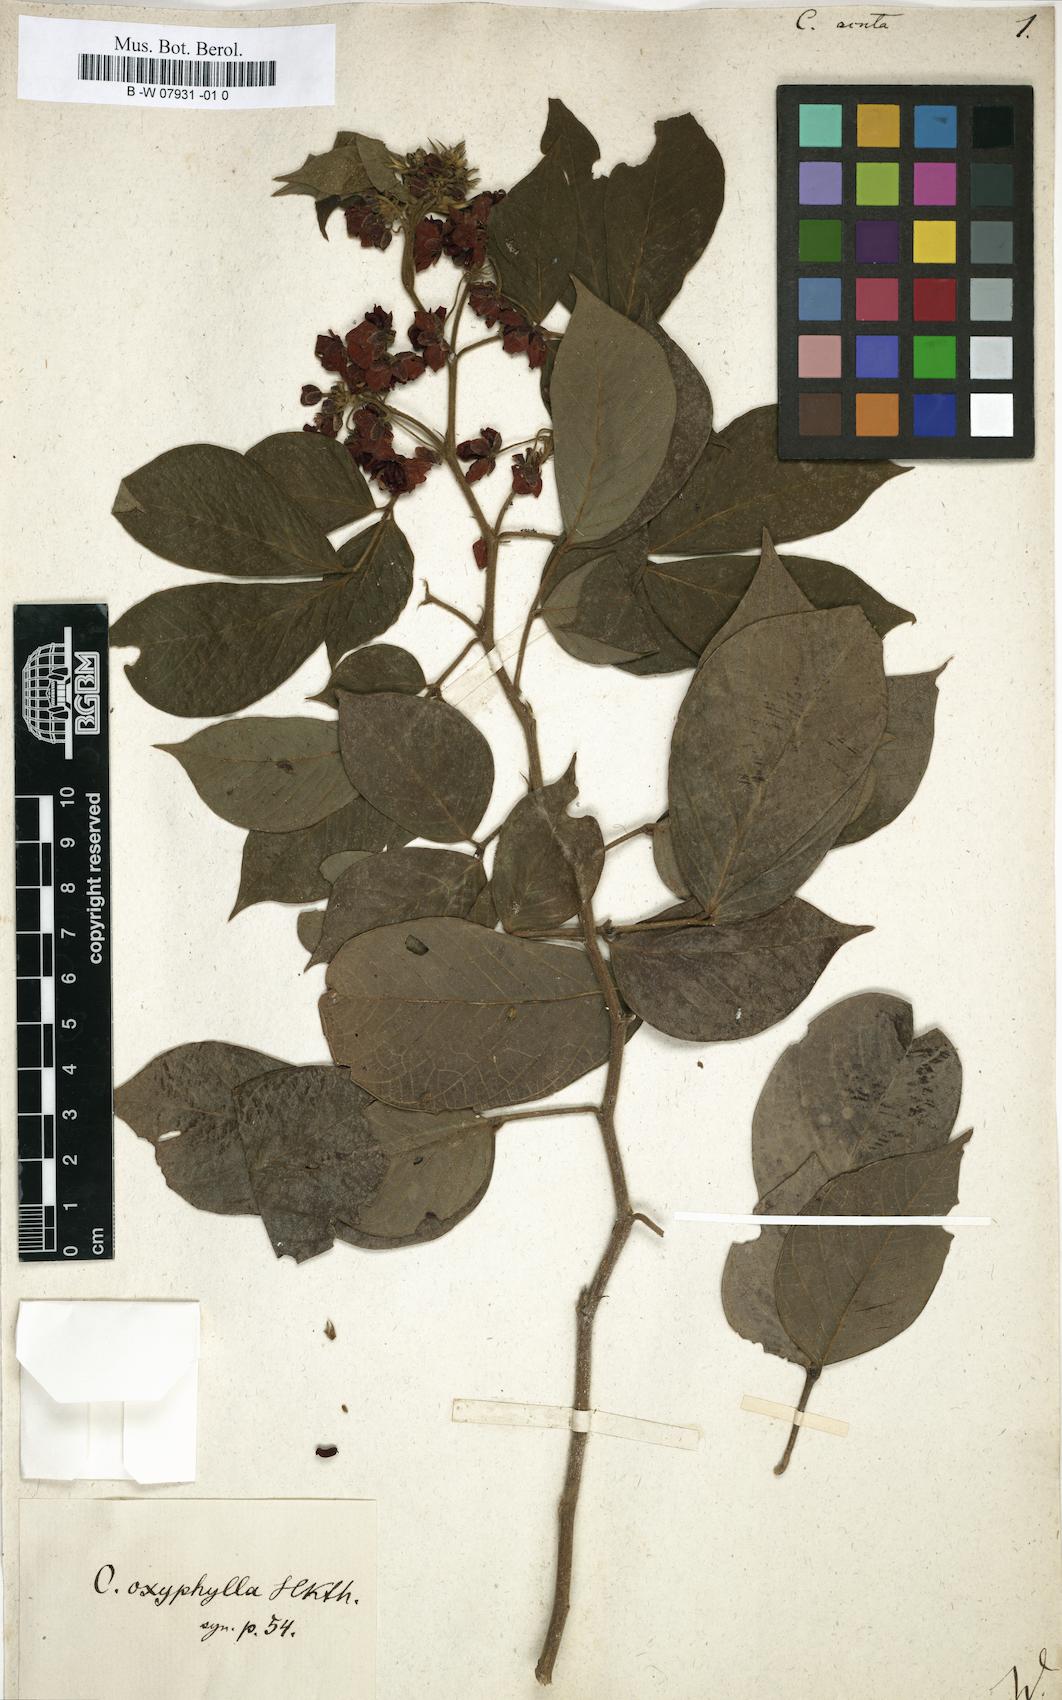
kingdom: Plantae
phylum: Tracheophyta
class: Magnoliopsida
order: Fabales
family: Fabaceae
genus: Senna
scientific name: Senna cumingii
